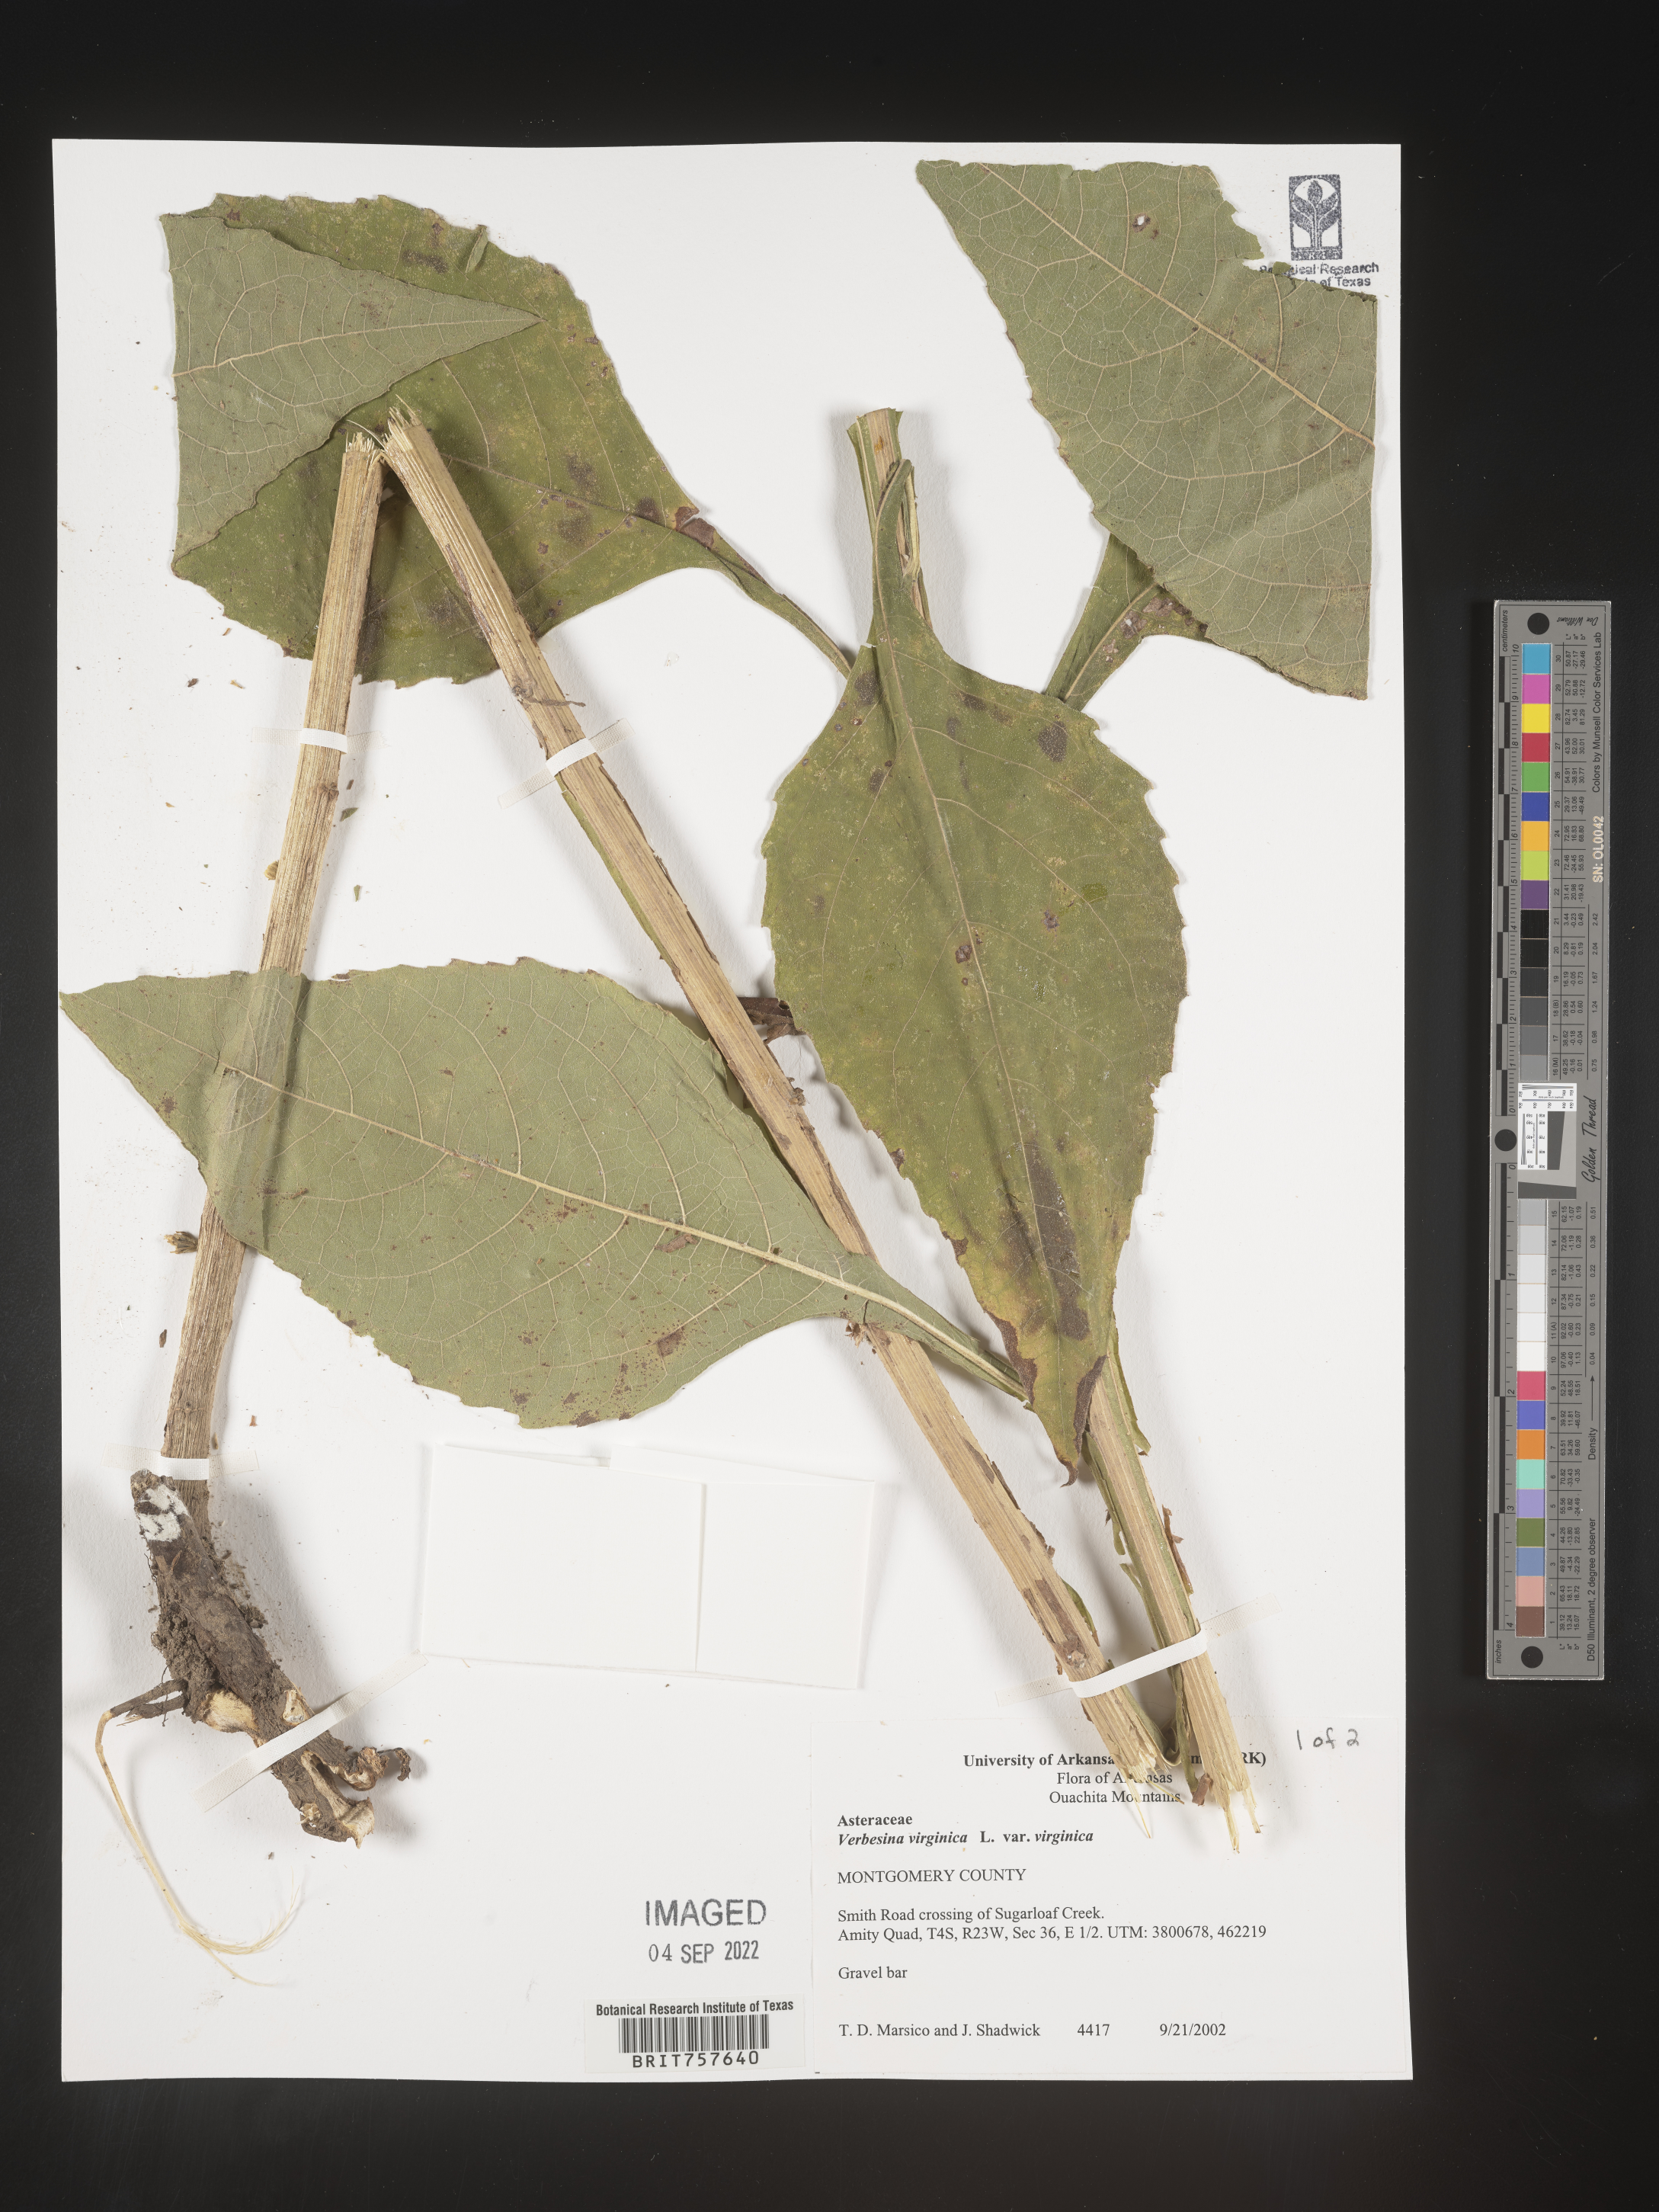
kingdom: Plantae
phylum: Tracheophyta
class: Magnoliopsida
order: Asterales
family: Asteraceae
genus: Verbesina
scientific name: Verbesina virginica
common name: Frostweed
